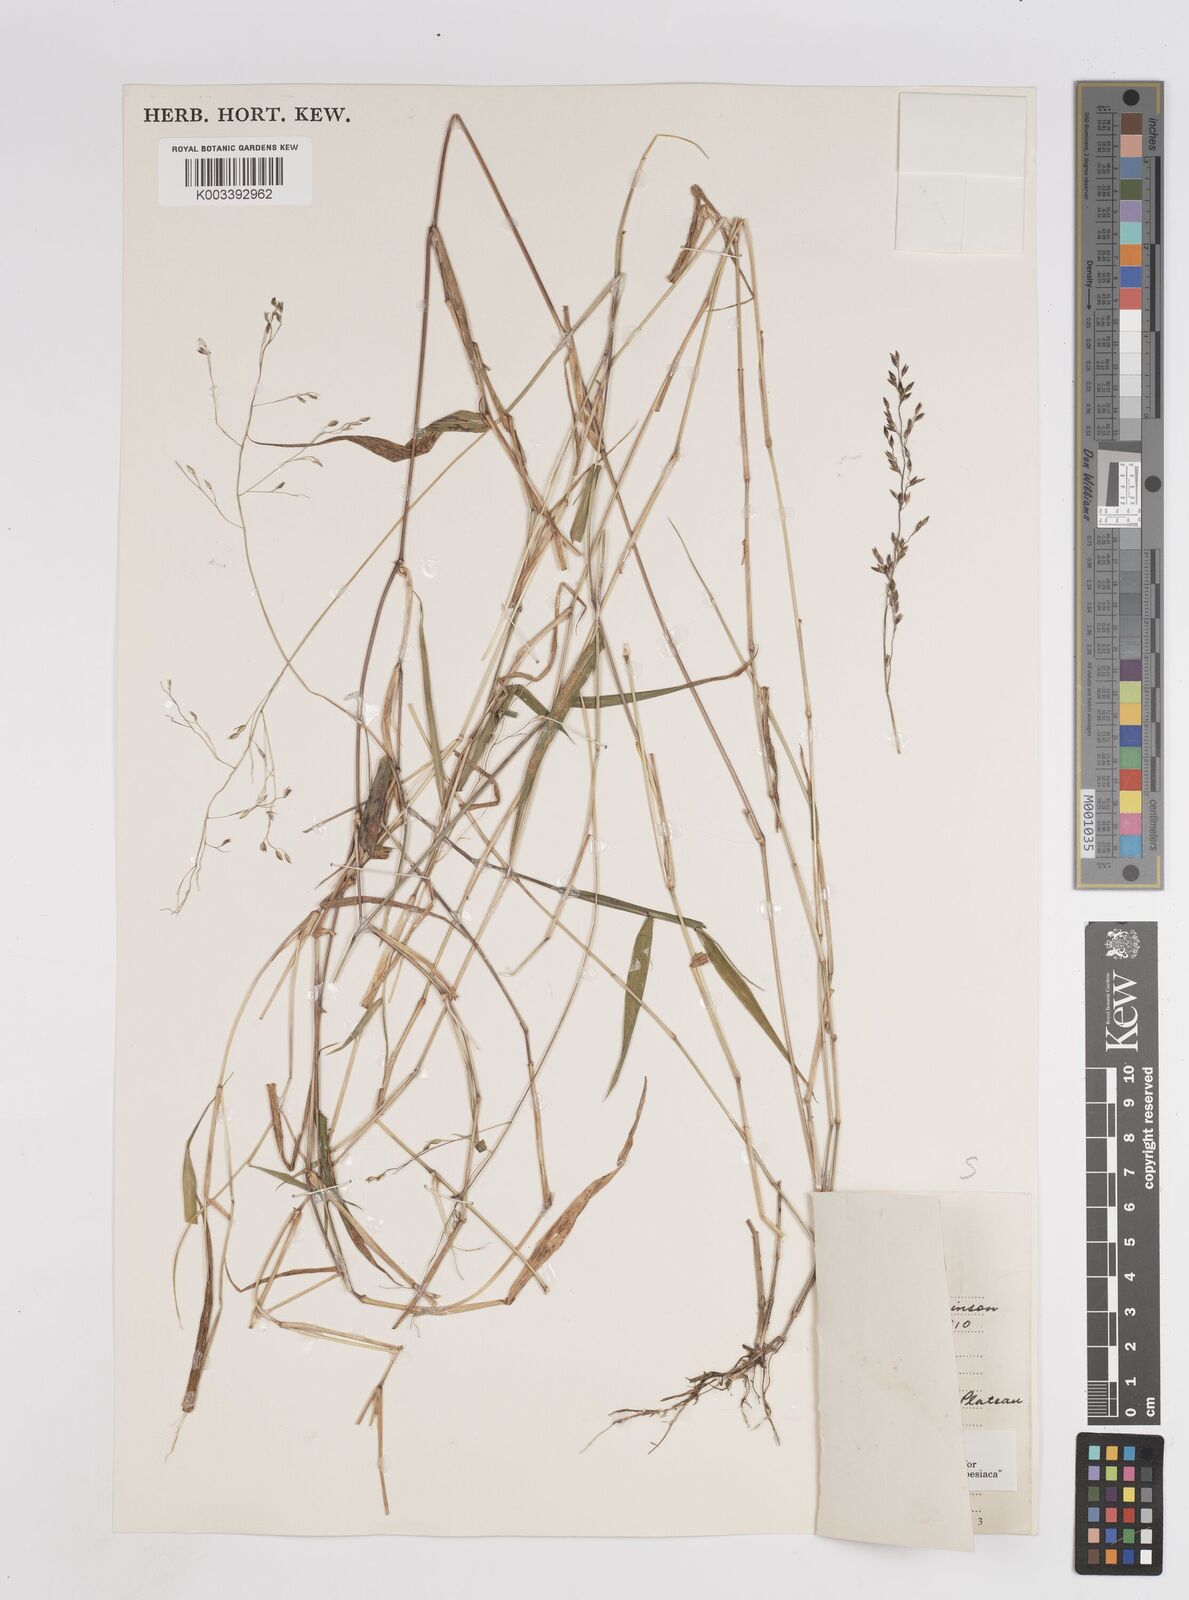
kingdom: Plantae
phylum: Tracheophyta
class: Liliopsida
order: Poales
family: Poaceae
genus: Panicum
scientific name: Panicum monticola
